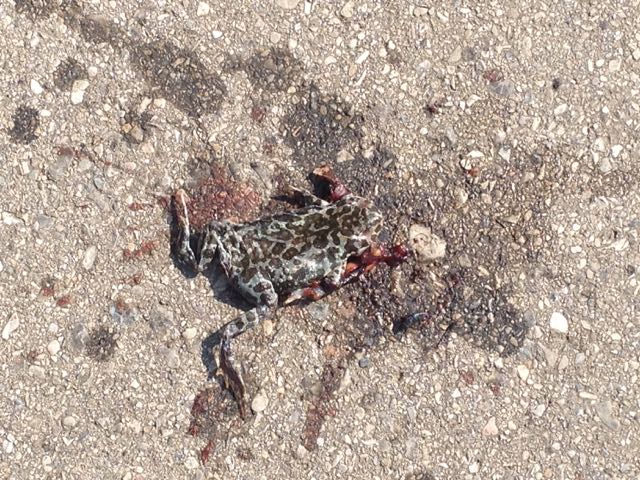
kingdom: Animalia
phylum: Chordata
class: Amphibia
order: Anura
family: Bufonidae
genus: Bufotes
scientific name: Bufotes viridis
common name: European green toad
